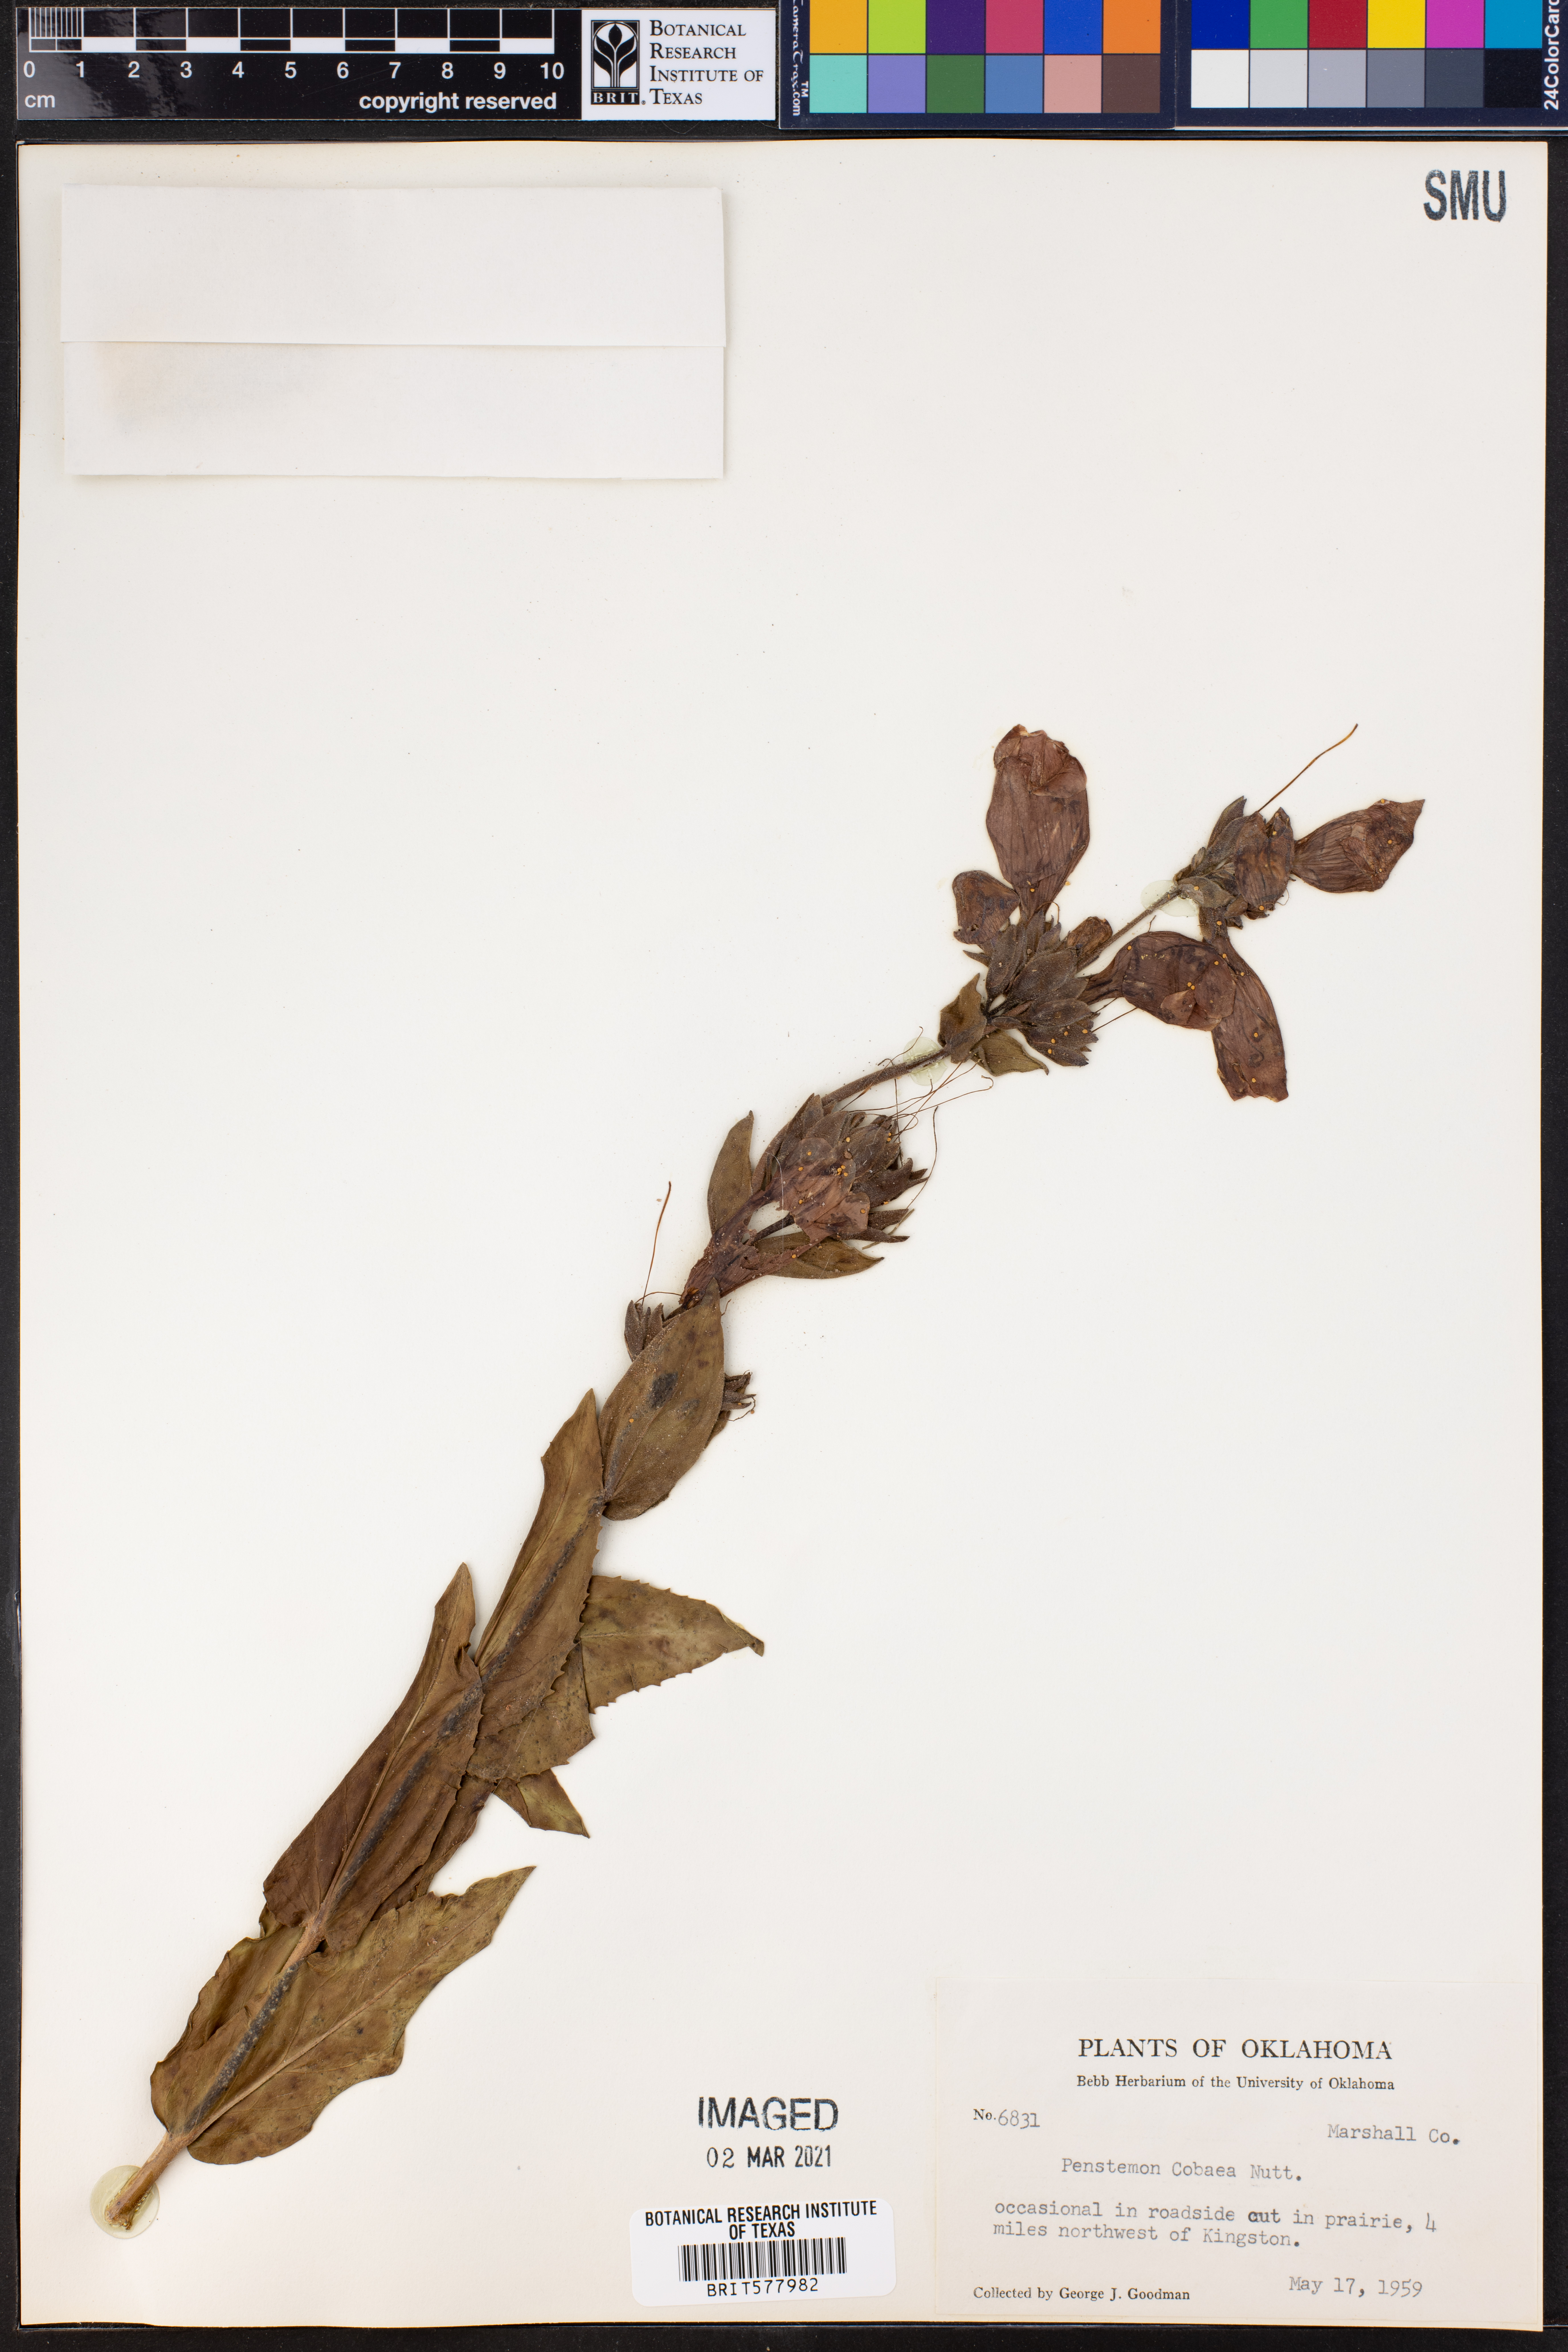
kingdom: Plantae
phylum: Tracheophyta
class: Magnoliopsida
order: Lamiales
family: Plantaginaceae
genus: Penstemon
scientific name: Penstemon cobaea
